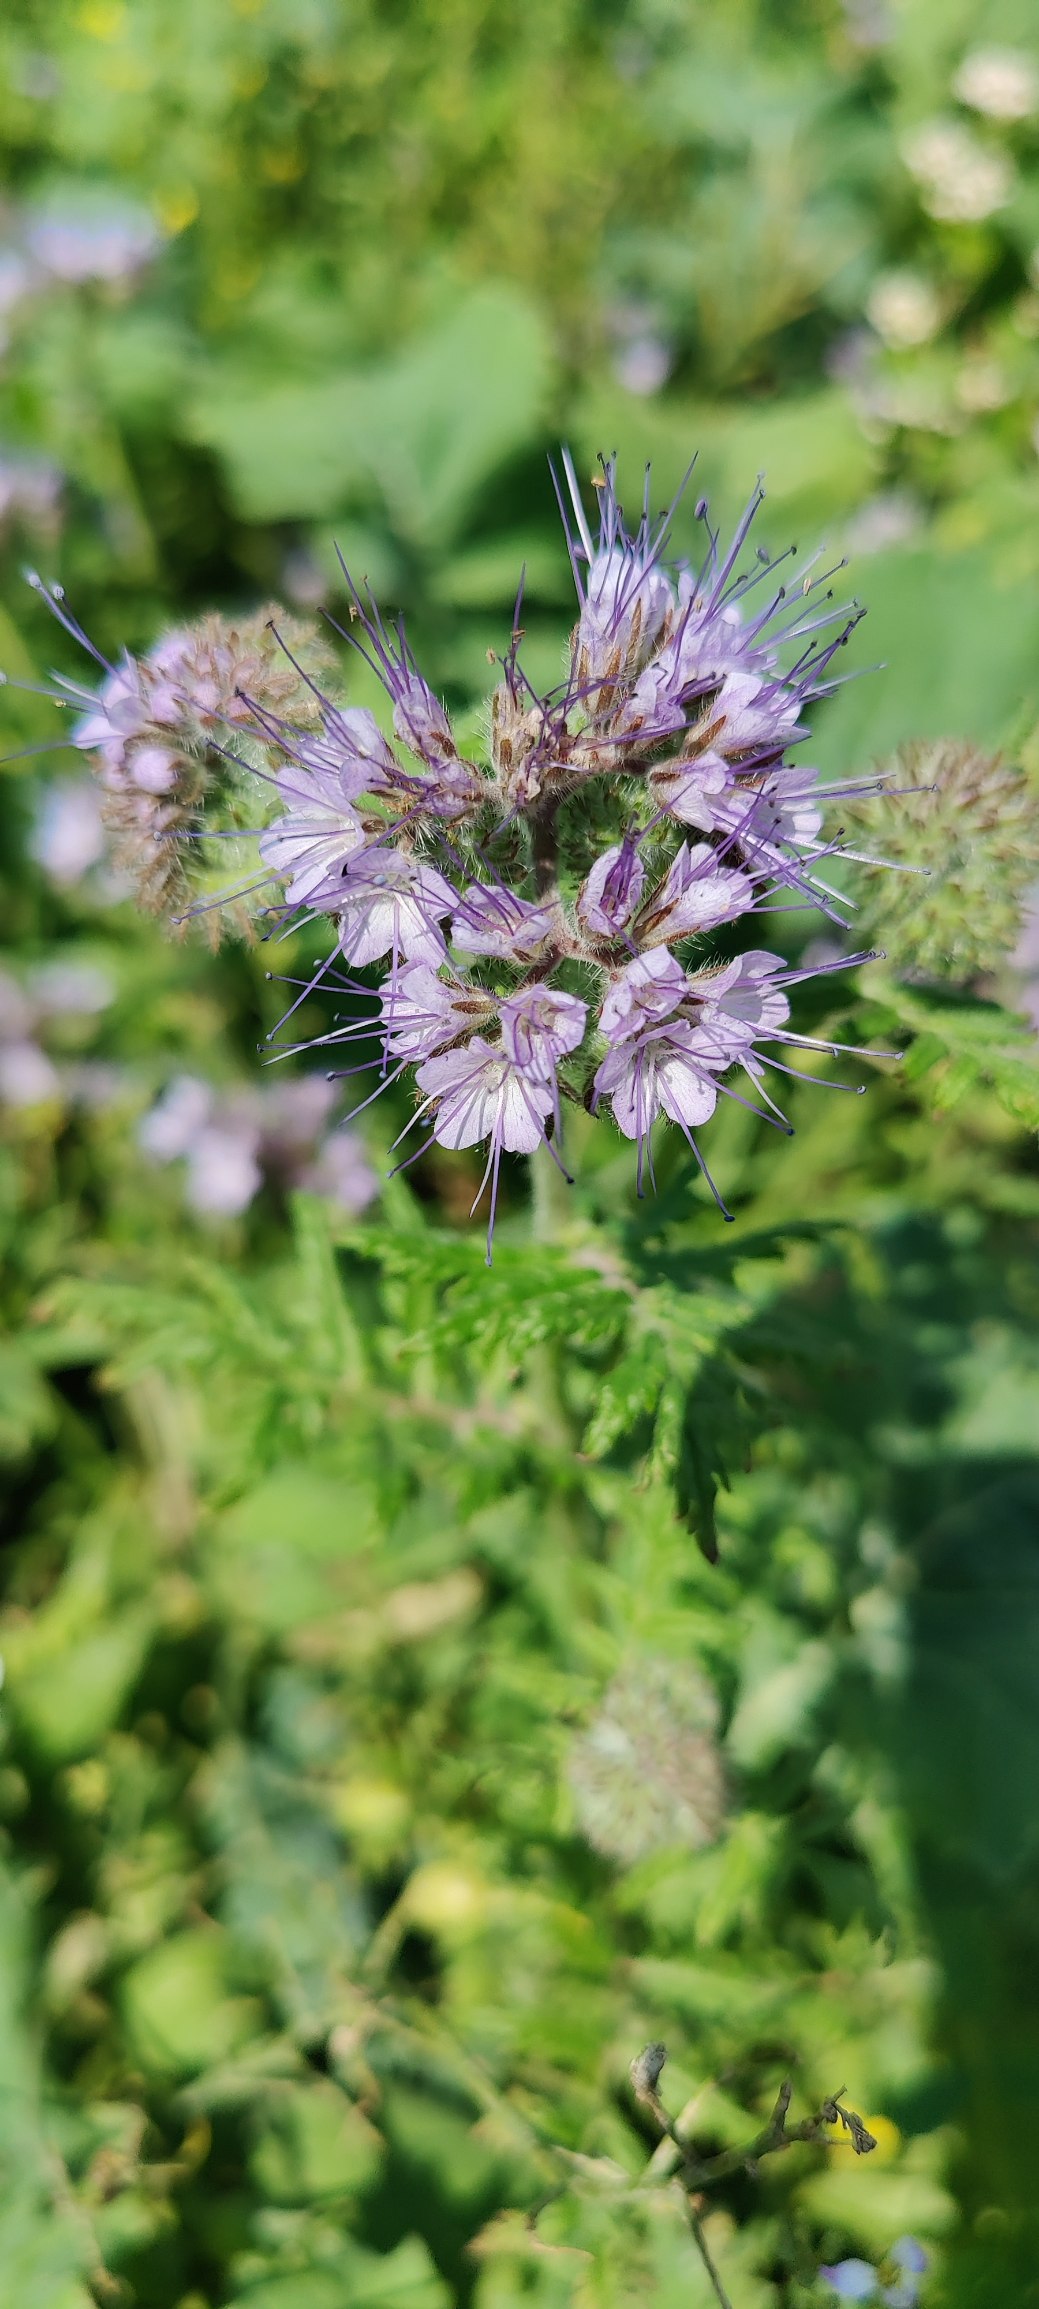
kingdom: Plantae
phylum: Tracheophyta
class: Magnoliopsida
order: Boraginales
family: Hydrophyllaceae
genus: Phacelia
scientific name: Phacelia tanacetifolia
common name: Honningurt
